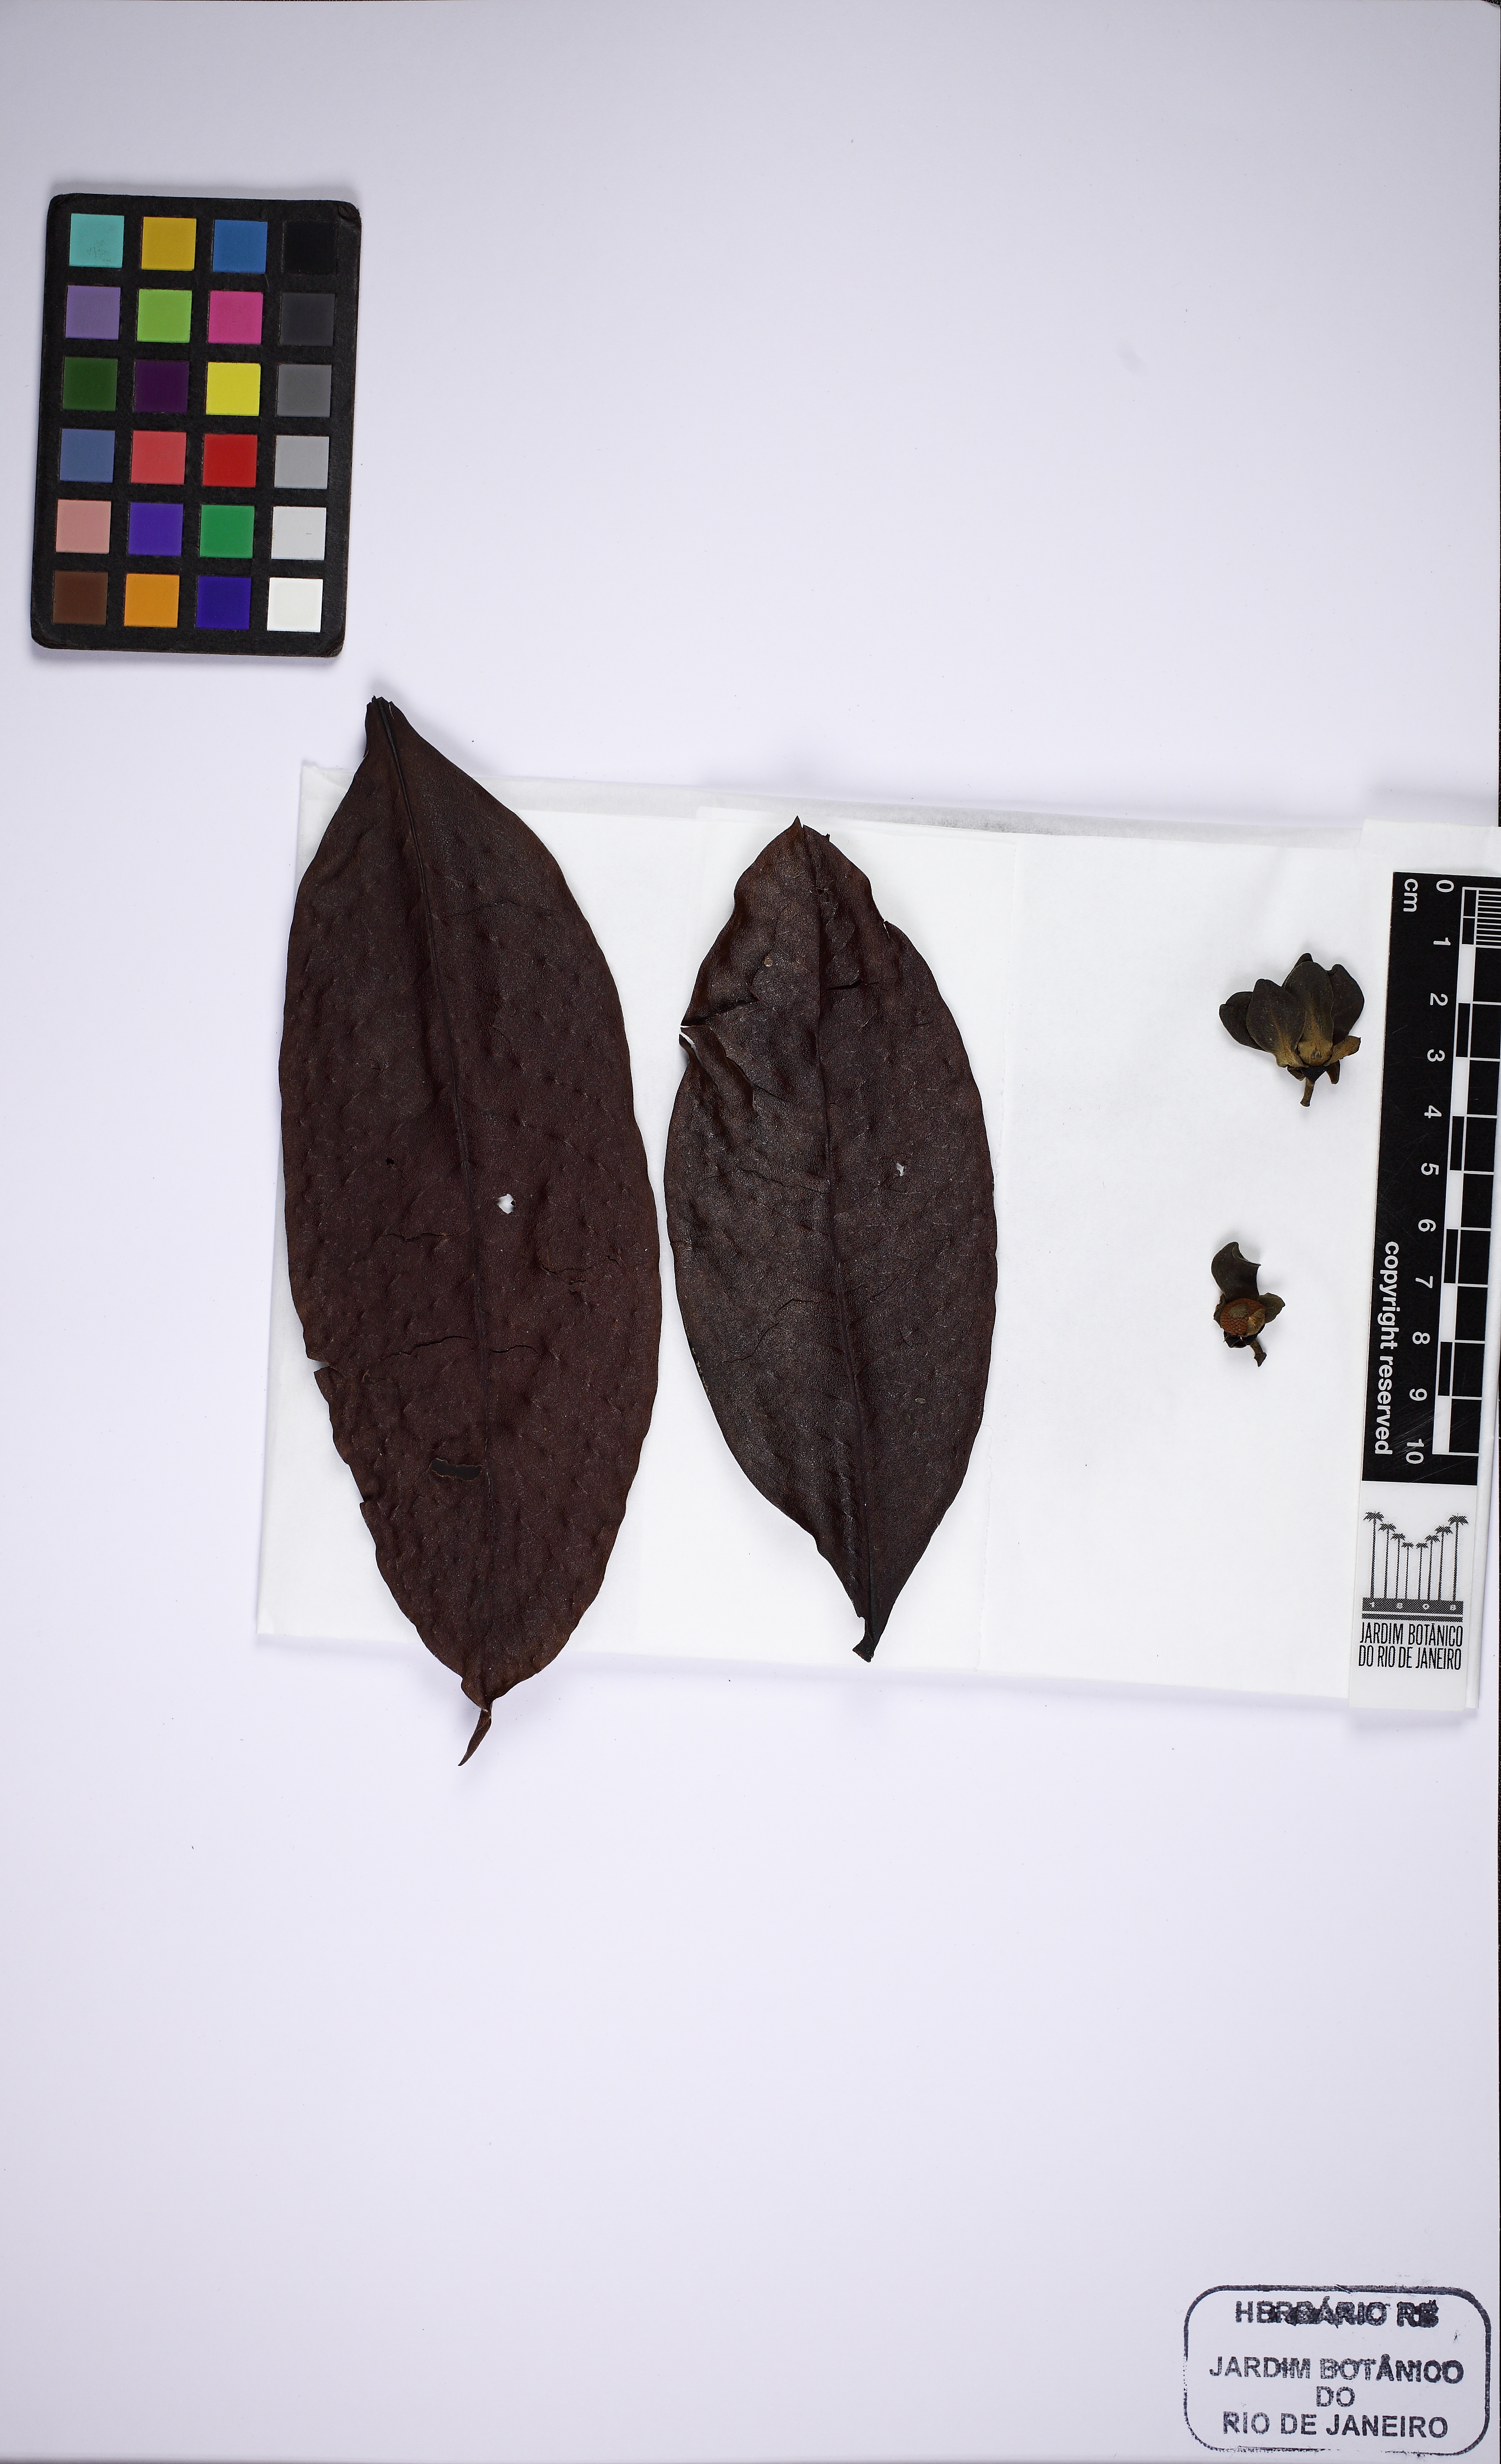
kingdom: Plantae
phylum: Tracheophyta
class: Magnoliopsida
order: Magnoliales
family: Annonaceae
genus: Guatteria
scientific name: Guatteria dura
